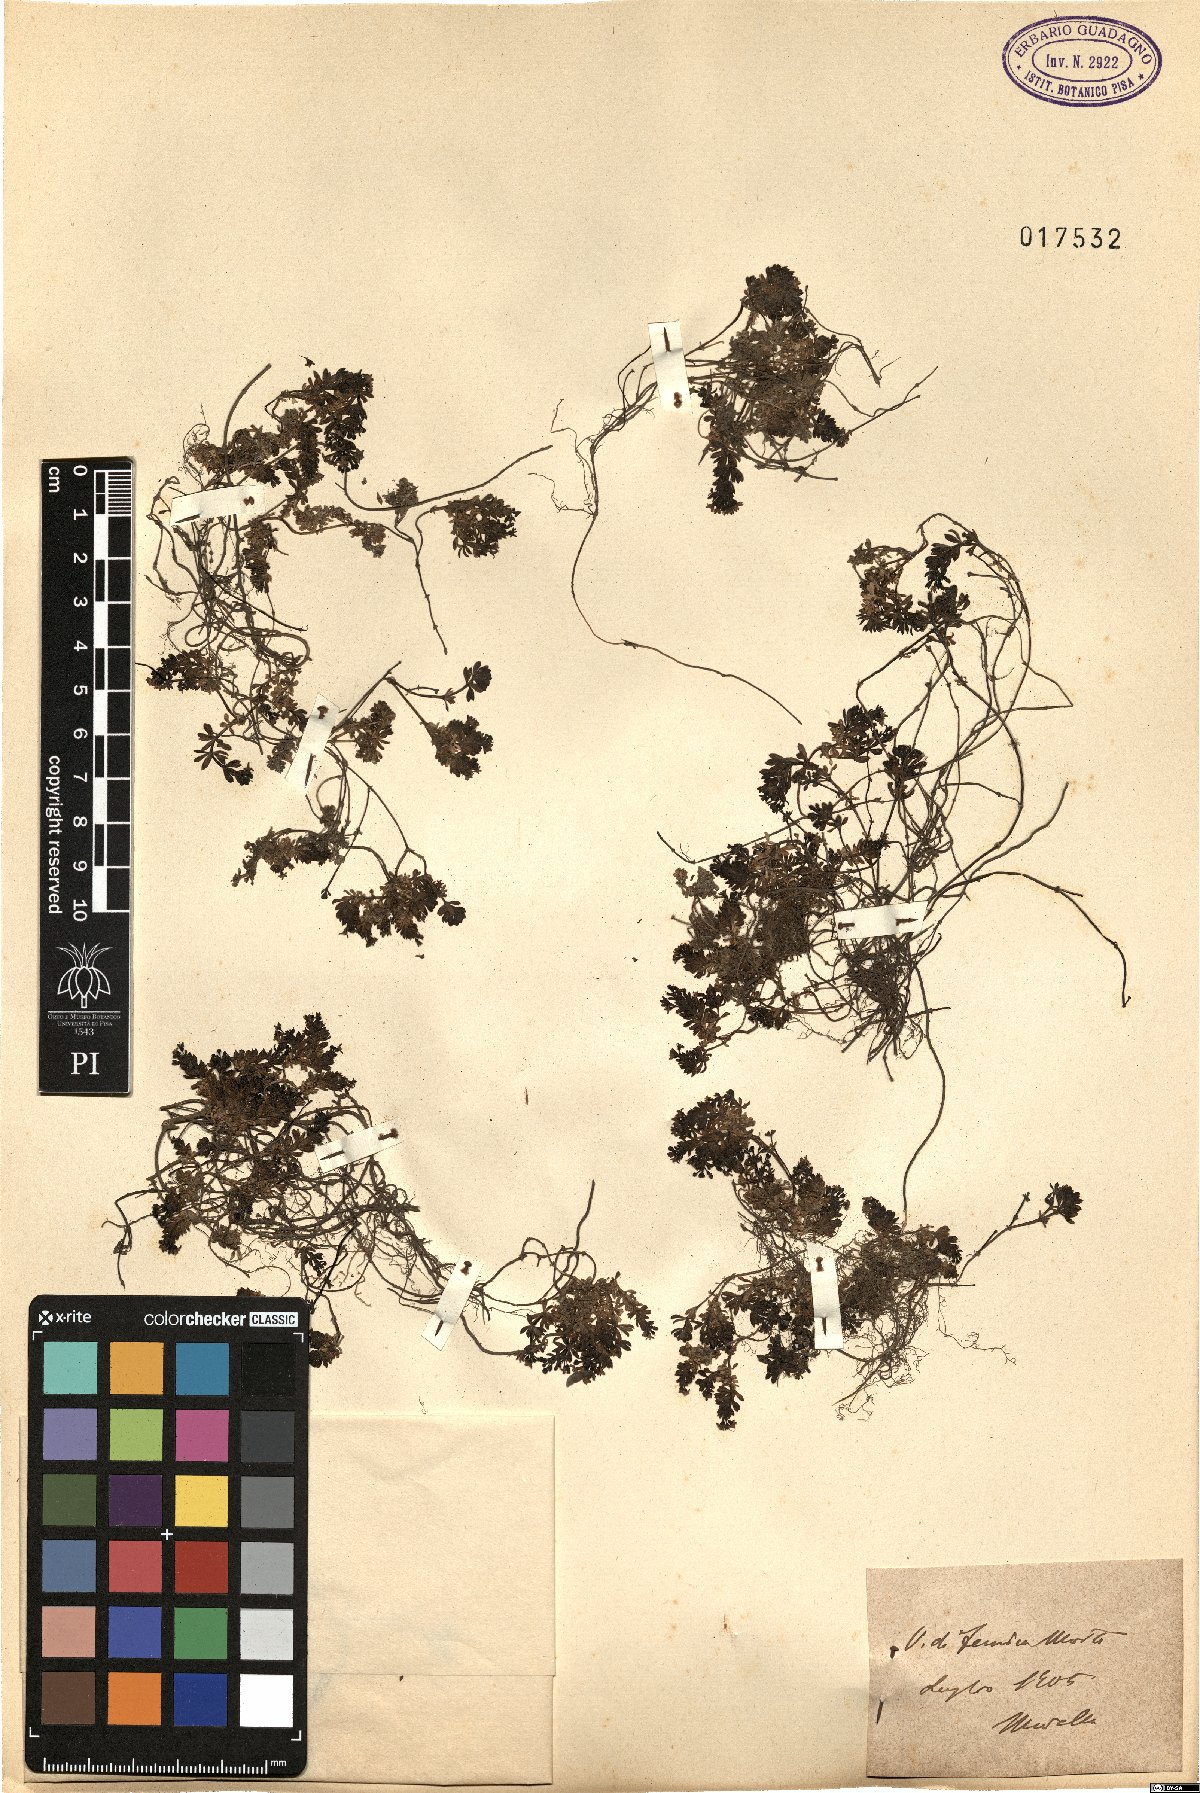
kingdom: Plantae
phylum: Tracheophyta
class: Magnoliopsida
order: Gentianales
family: Rubiaceae
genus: Galium
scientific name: Galium
